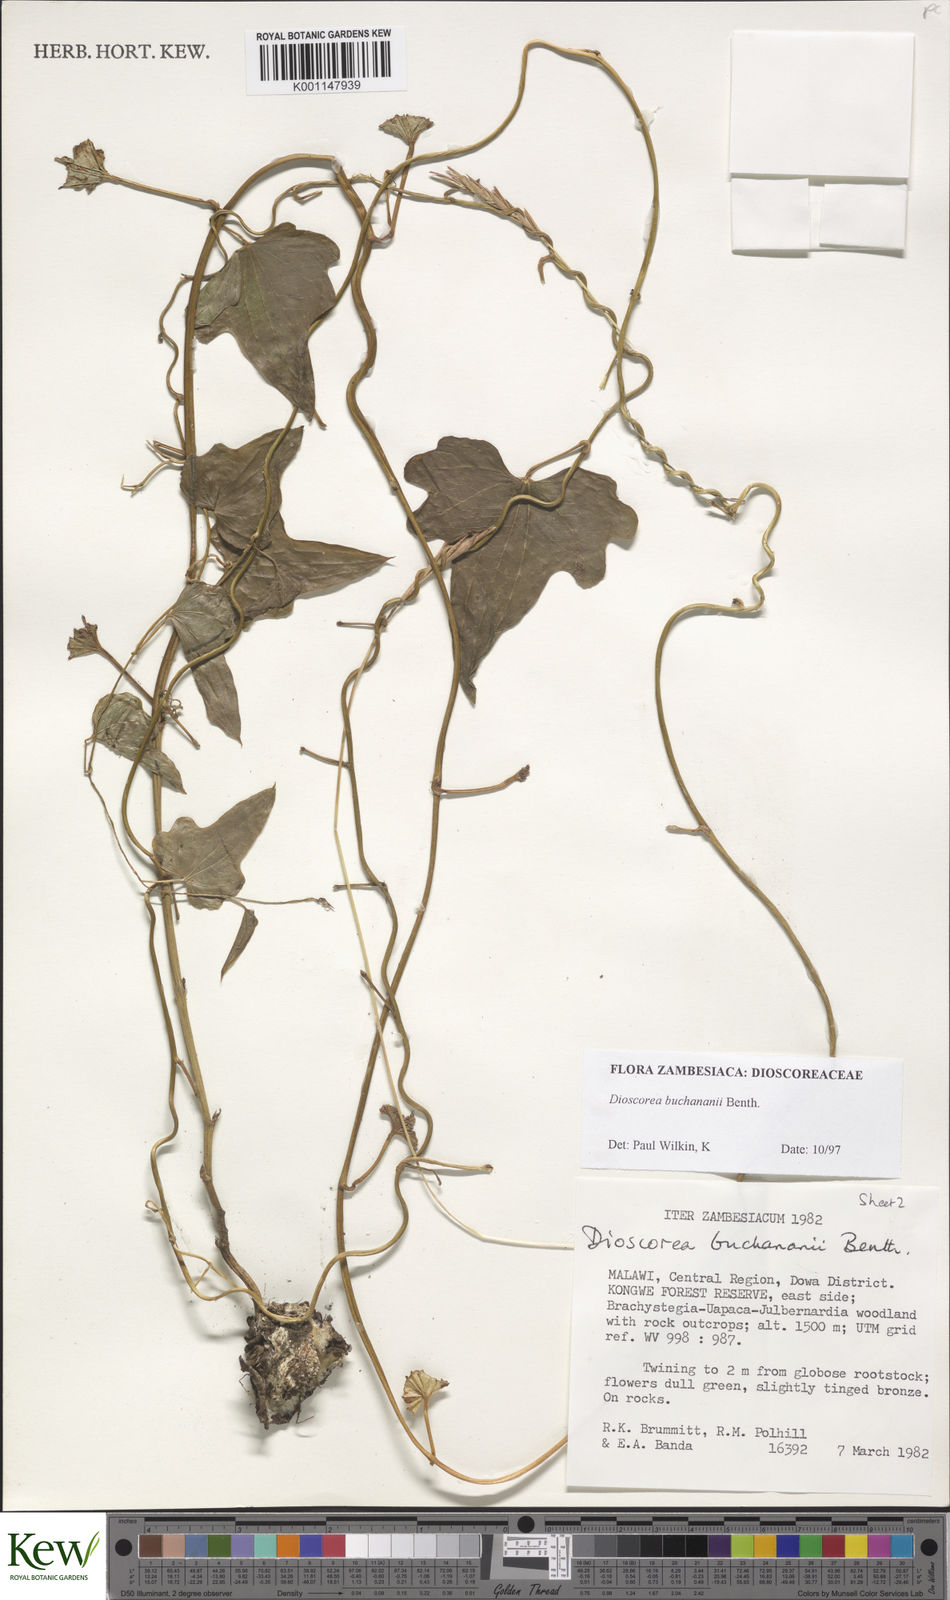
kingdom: Plantae
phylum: Tracheophyta
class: Liliopsida
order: Dioscoreales
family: Dioscoreaceae
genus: Dioscorea
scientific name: Dioscorea buchananii
